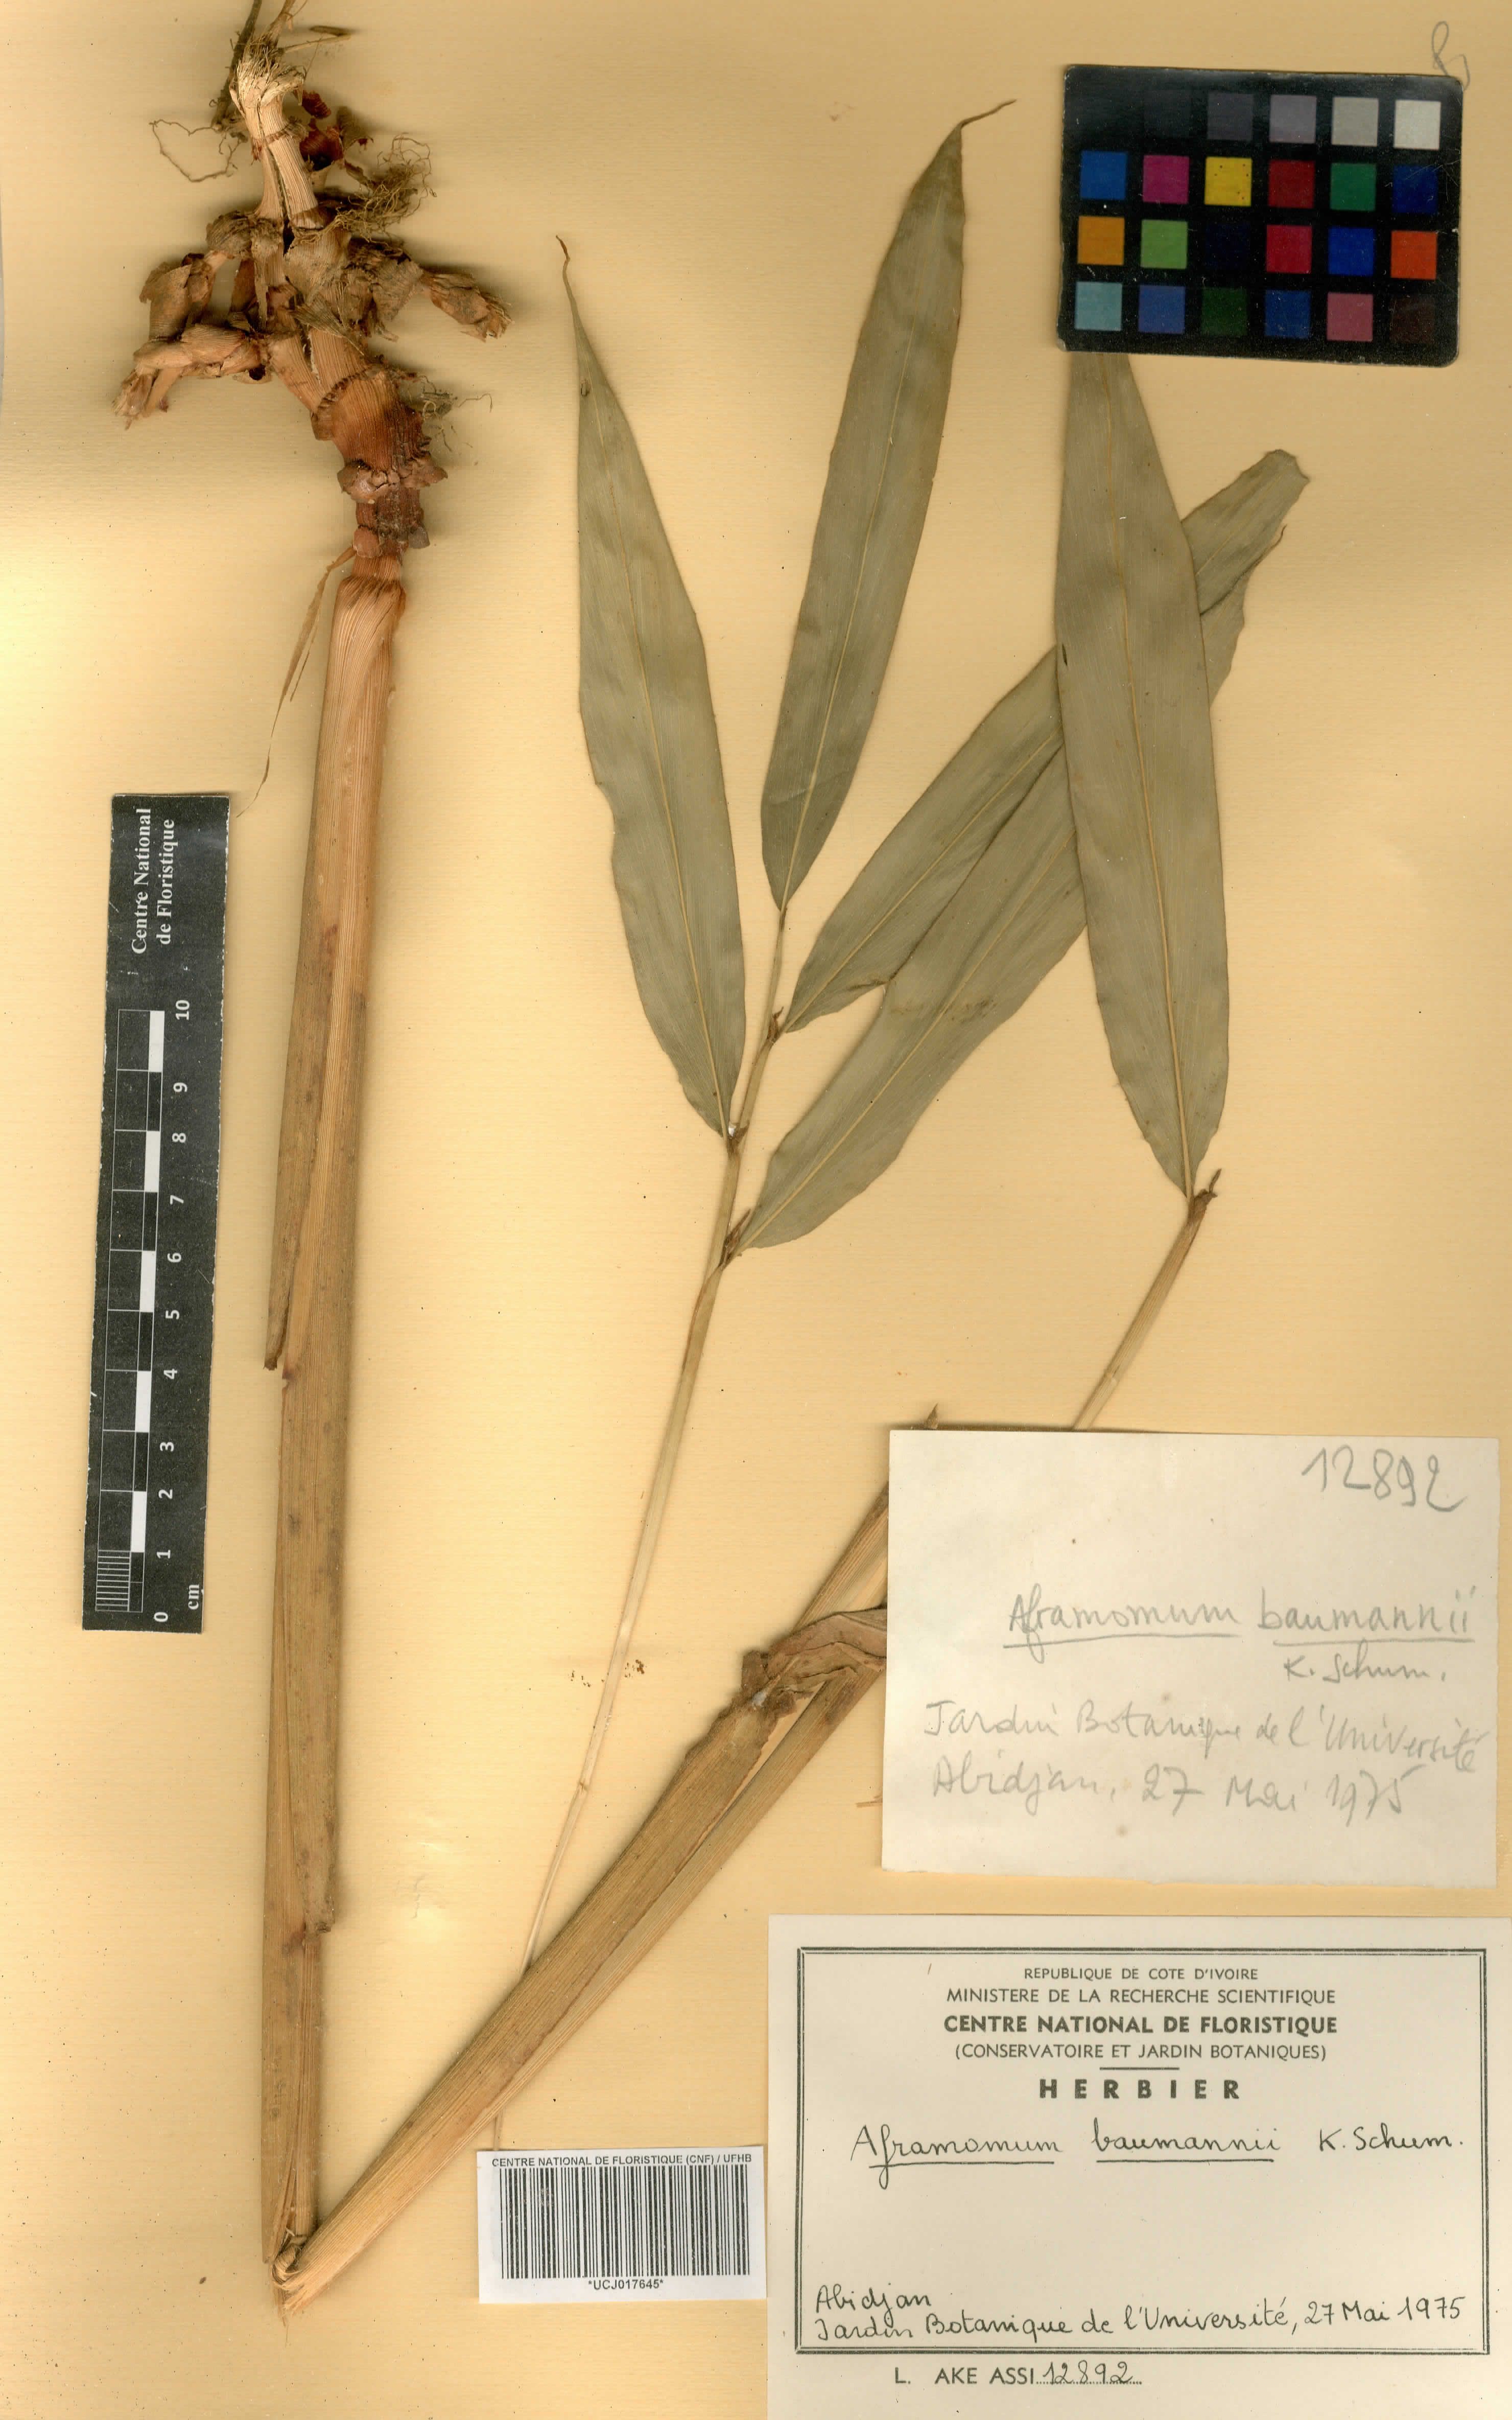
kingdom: Plantae
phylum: Tracheophyta
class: Liliopsida
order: Zingiberales
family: Zingiberaceae
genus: Aframomum
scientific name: Aframomum angustifolium
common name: Guinea grains
